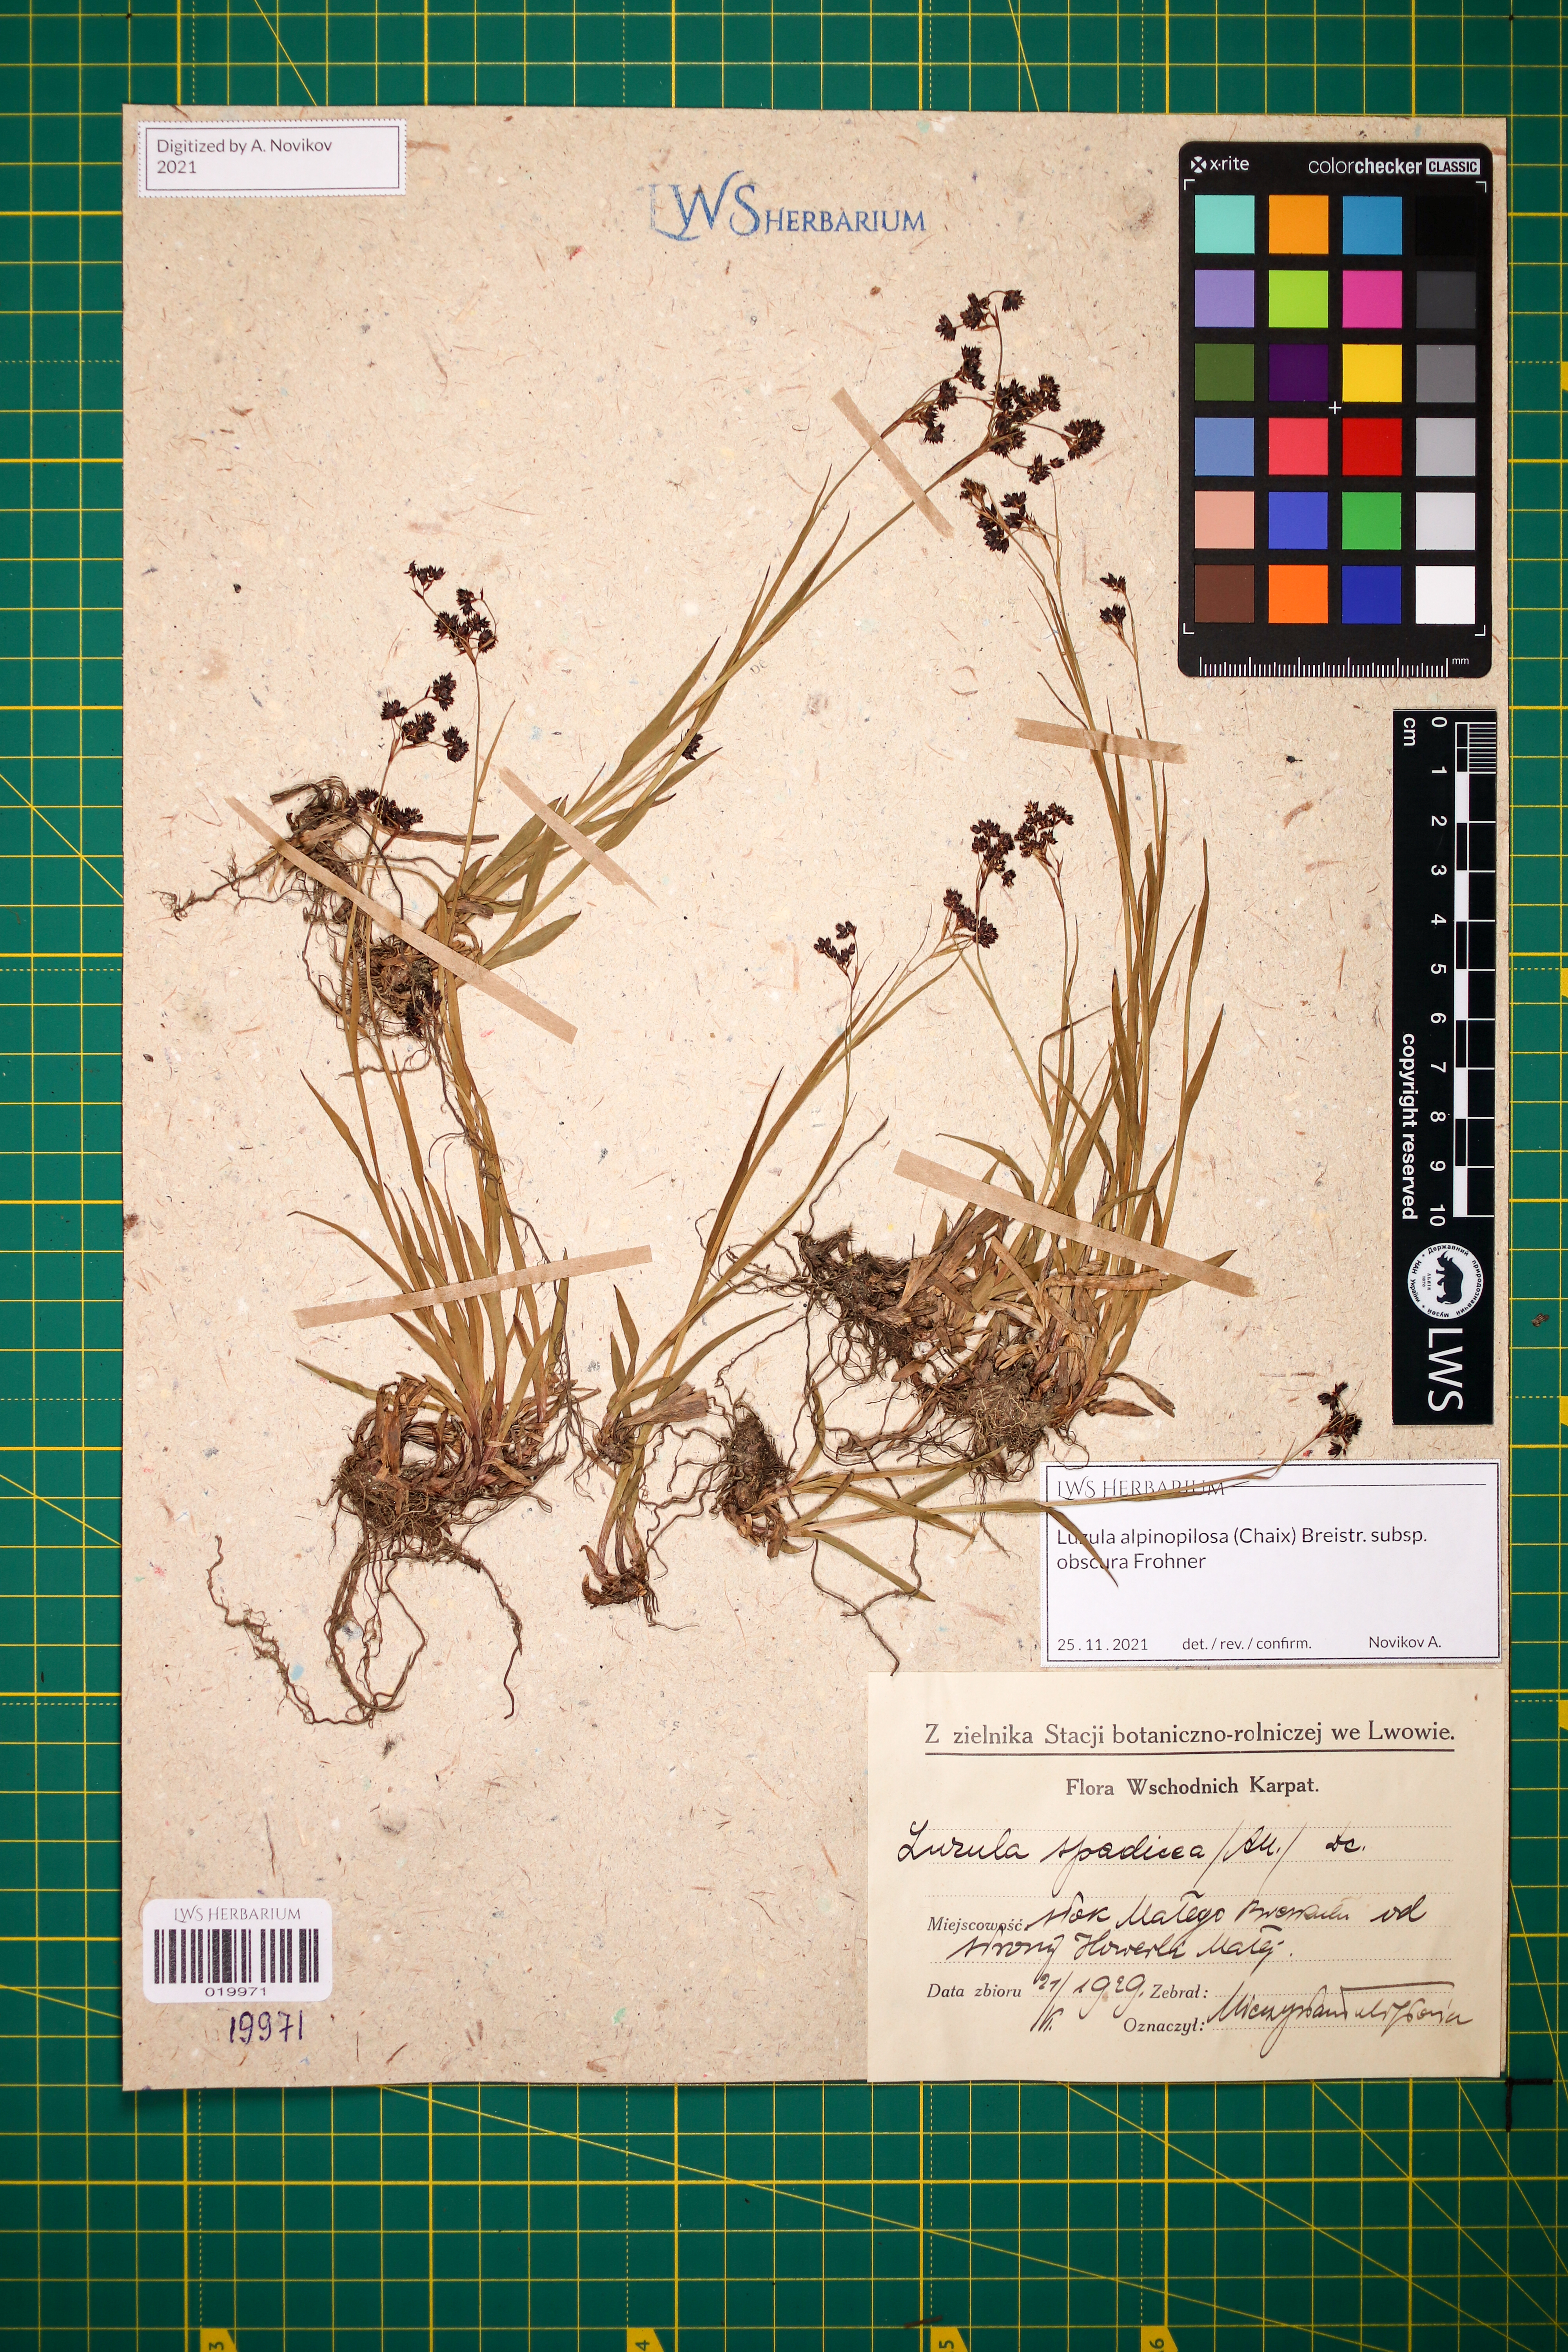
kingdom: Plantae
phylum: Tracheophyta
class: Liliopsida
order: Poales
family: Juncaceae
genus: Luzula
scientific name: Luzula alpinopilosa
